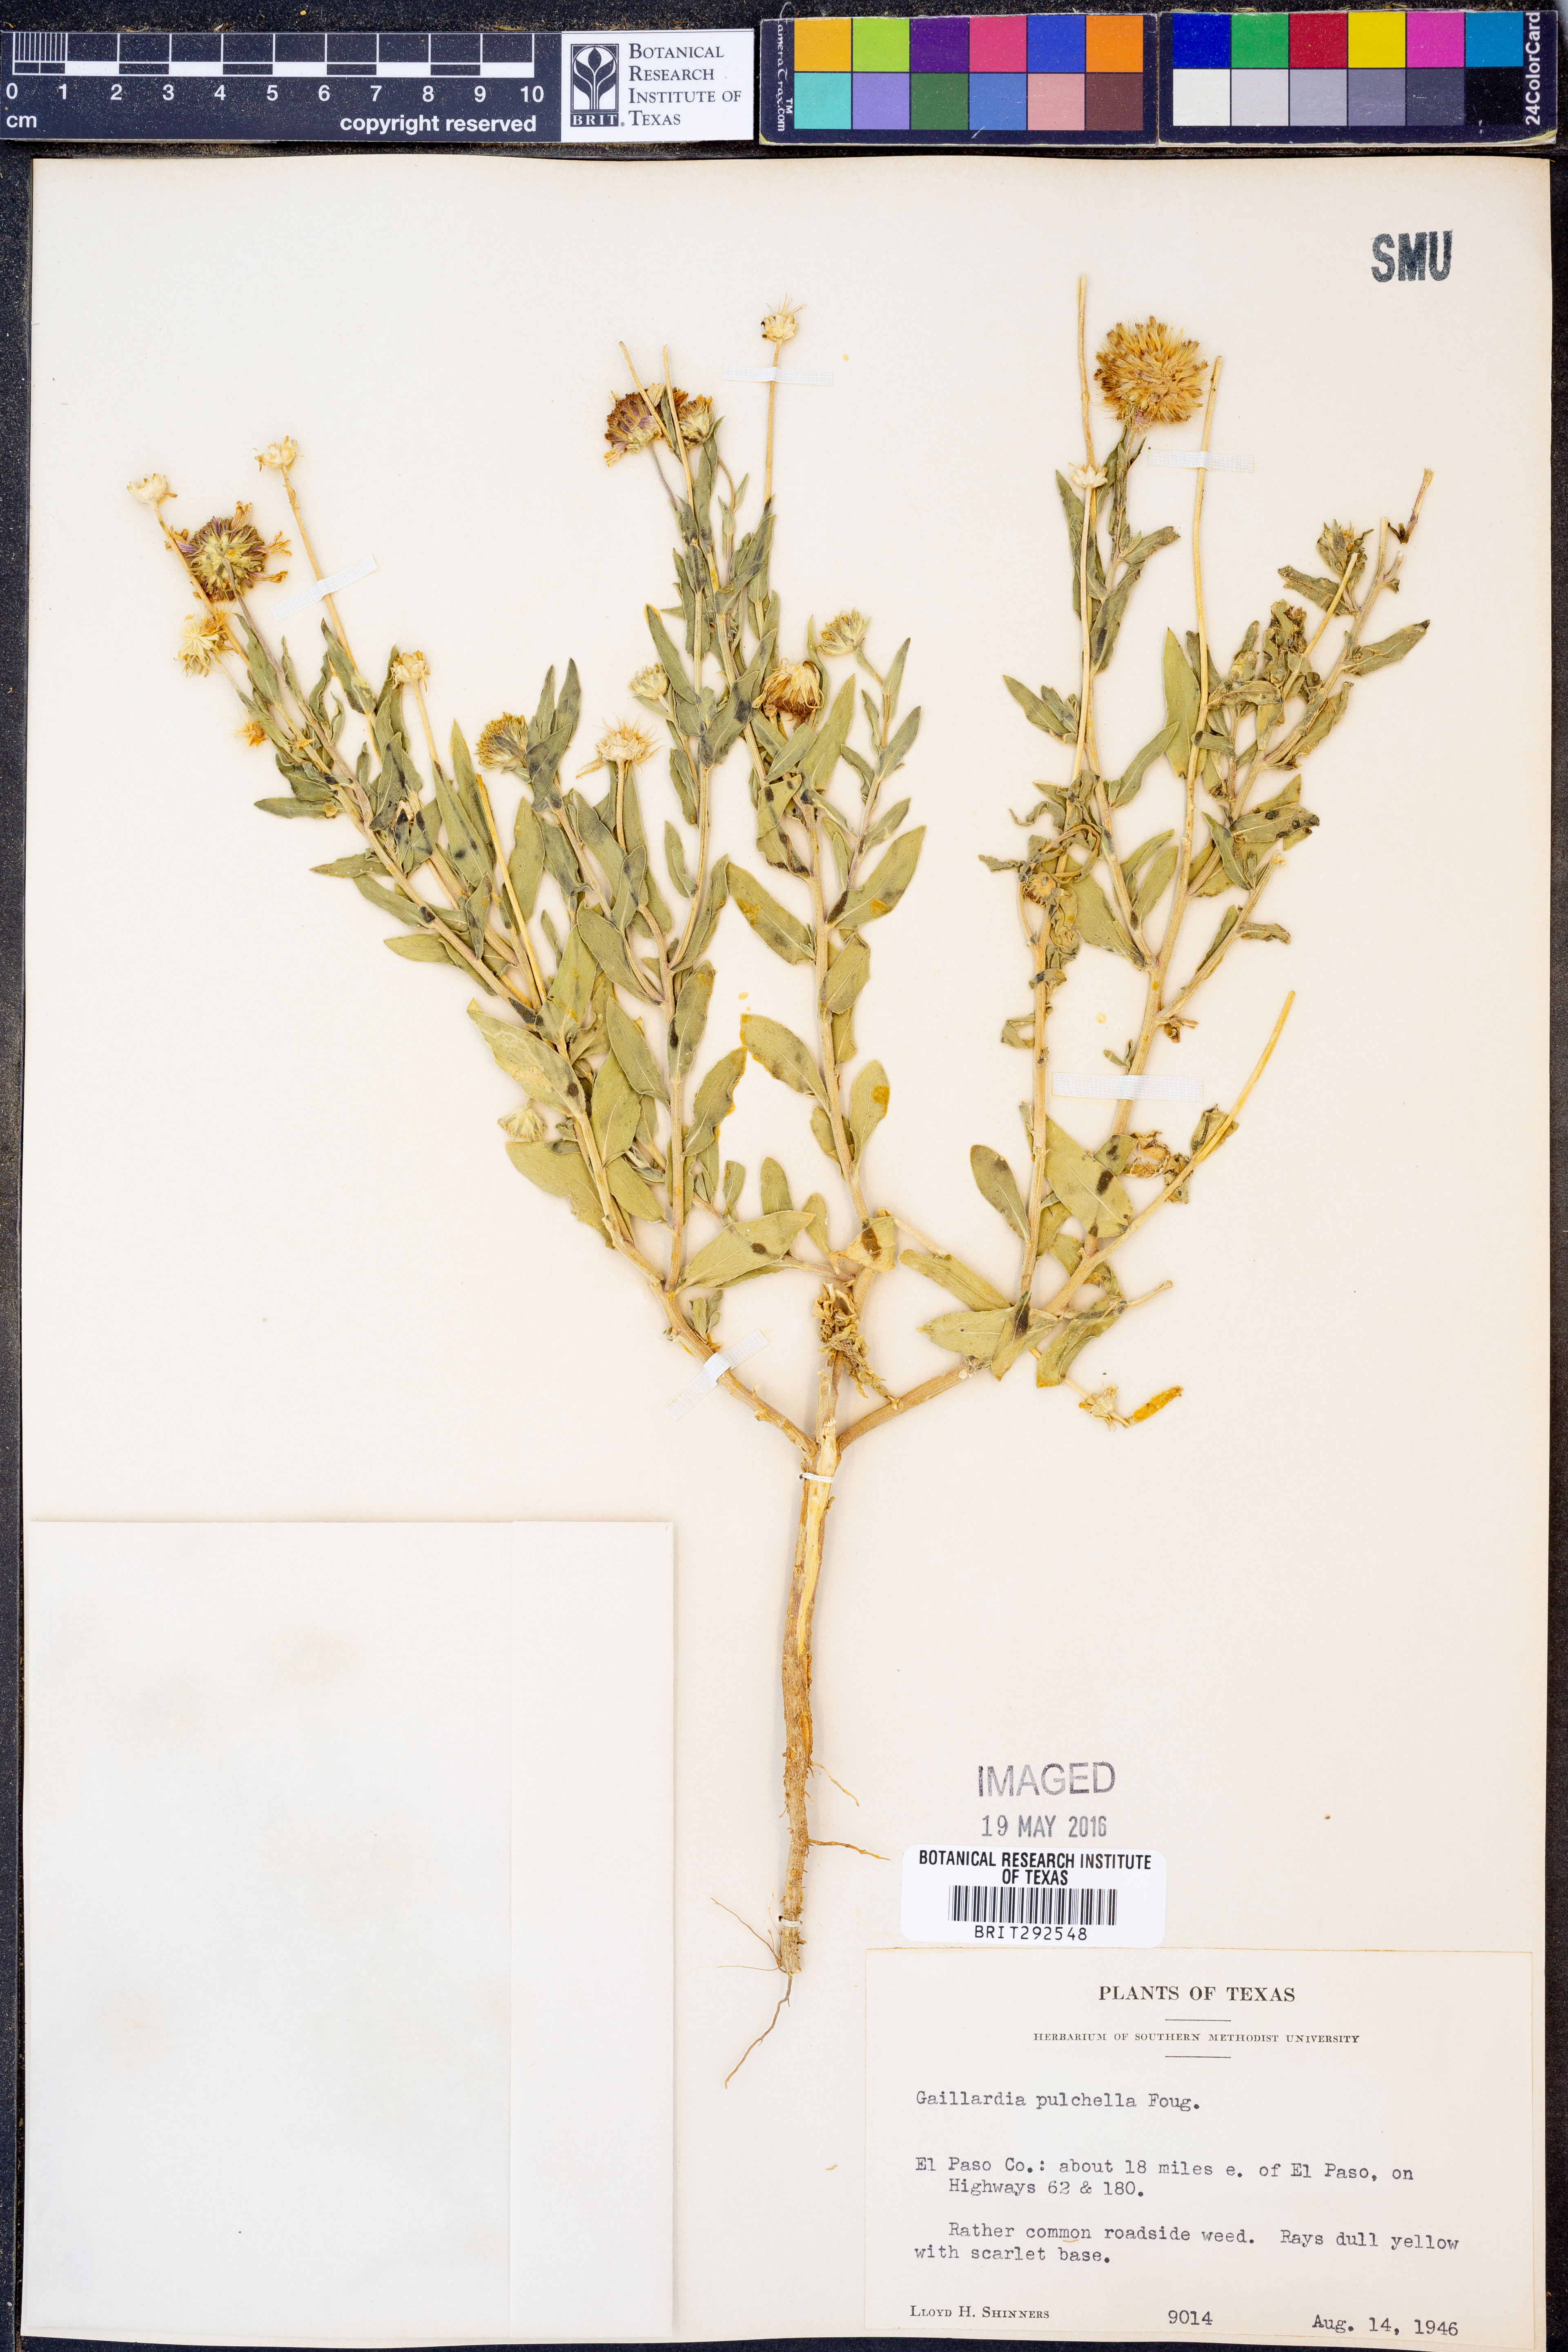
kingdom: Plantae
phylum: Tracheophyta
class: Magnoliopsida
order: Asterales
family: Asteraceae
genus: Gaillardia
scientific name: Gaillardia pulchella
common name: Firewheel
